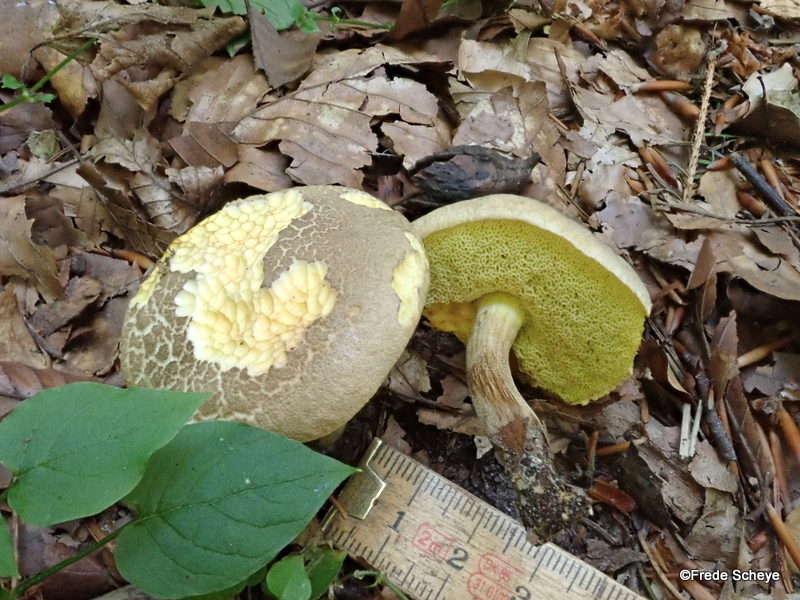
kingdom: Fungi
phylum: Basidiomycota
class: Agaricomycetes
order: Boletales
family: Boletaceae
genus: Xerocomellus
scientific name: Xerocomellus porosporus
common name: hvidsprukken rørhat
